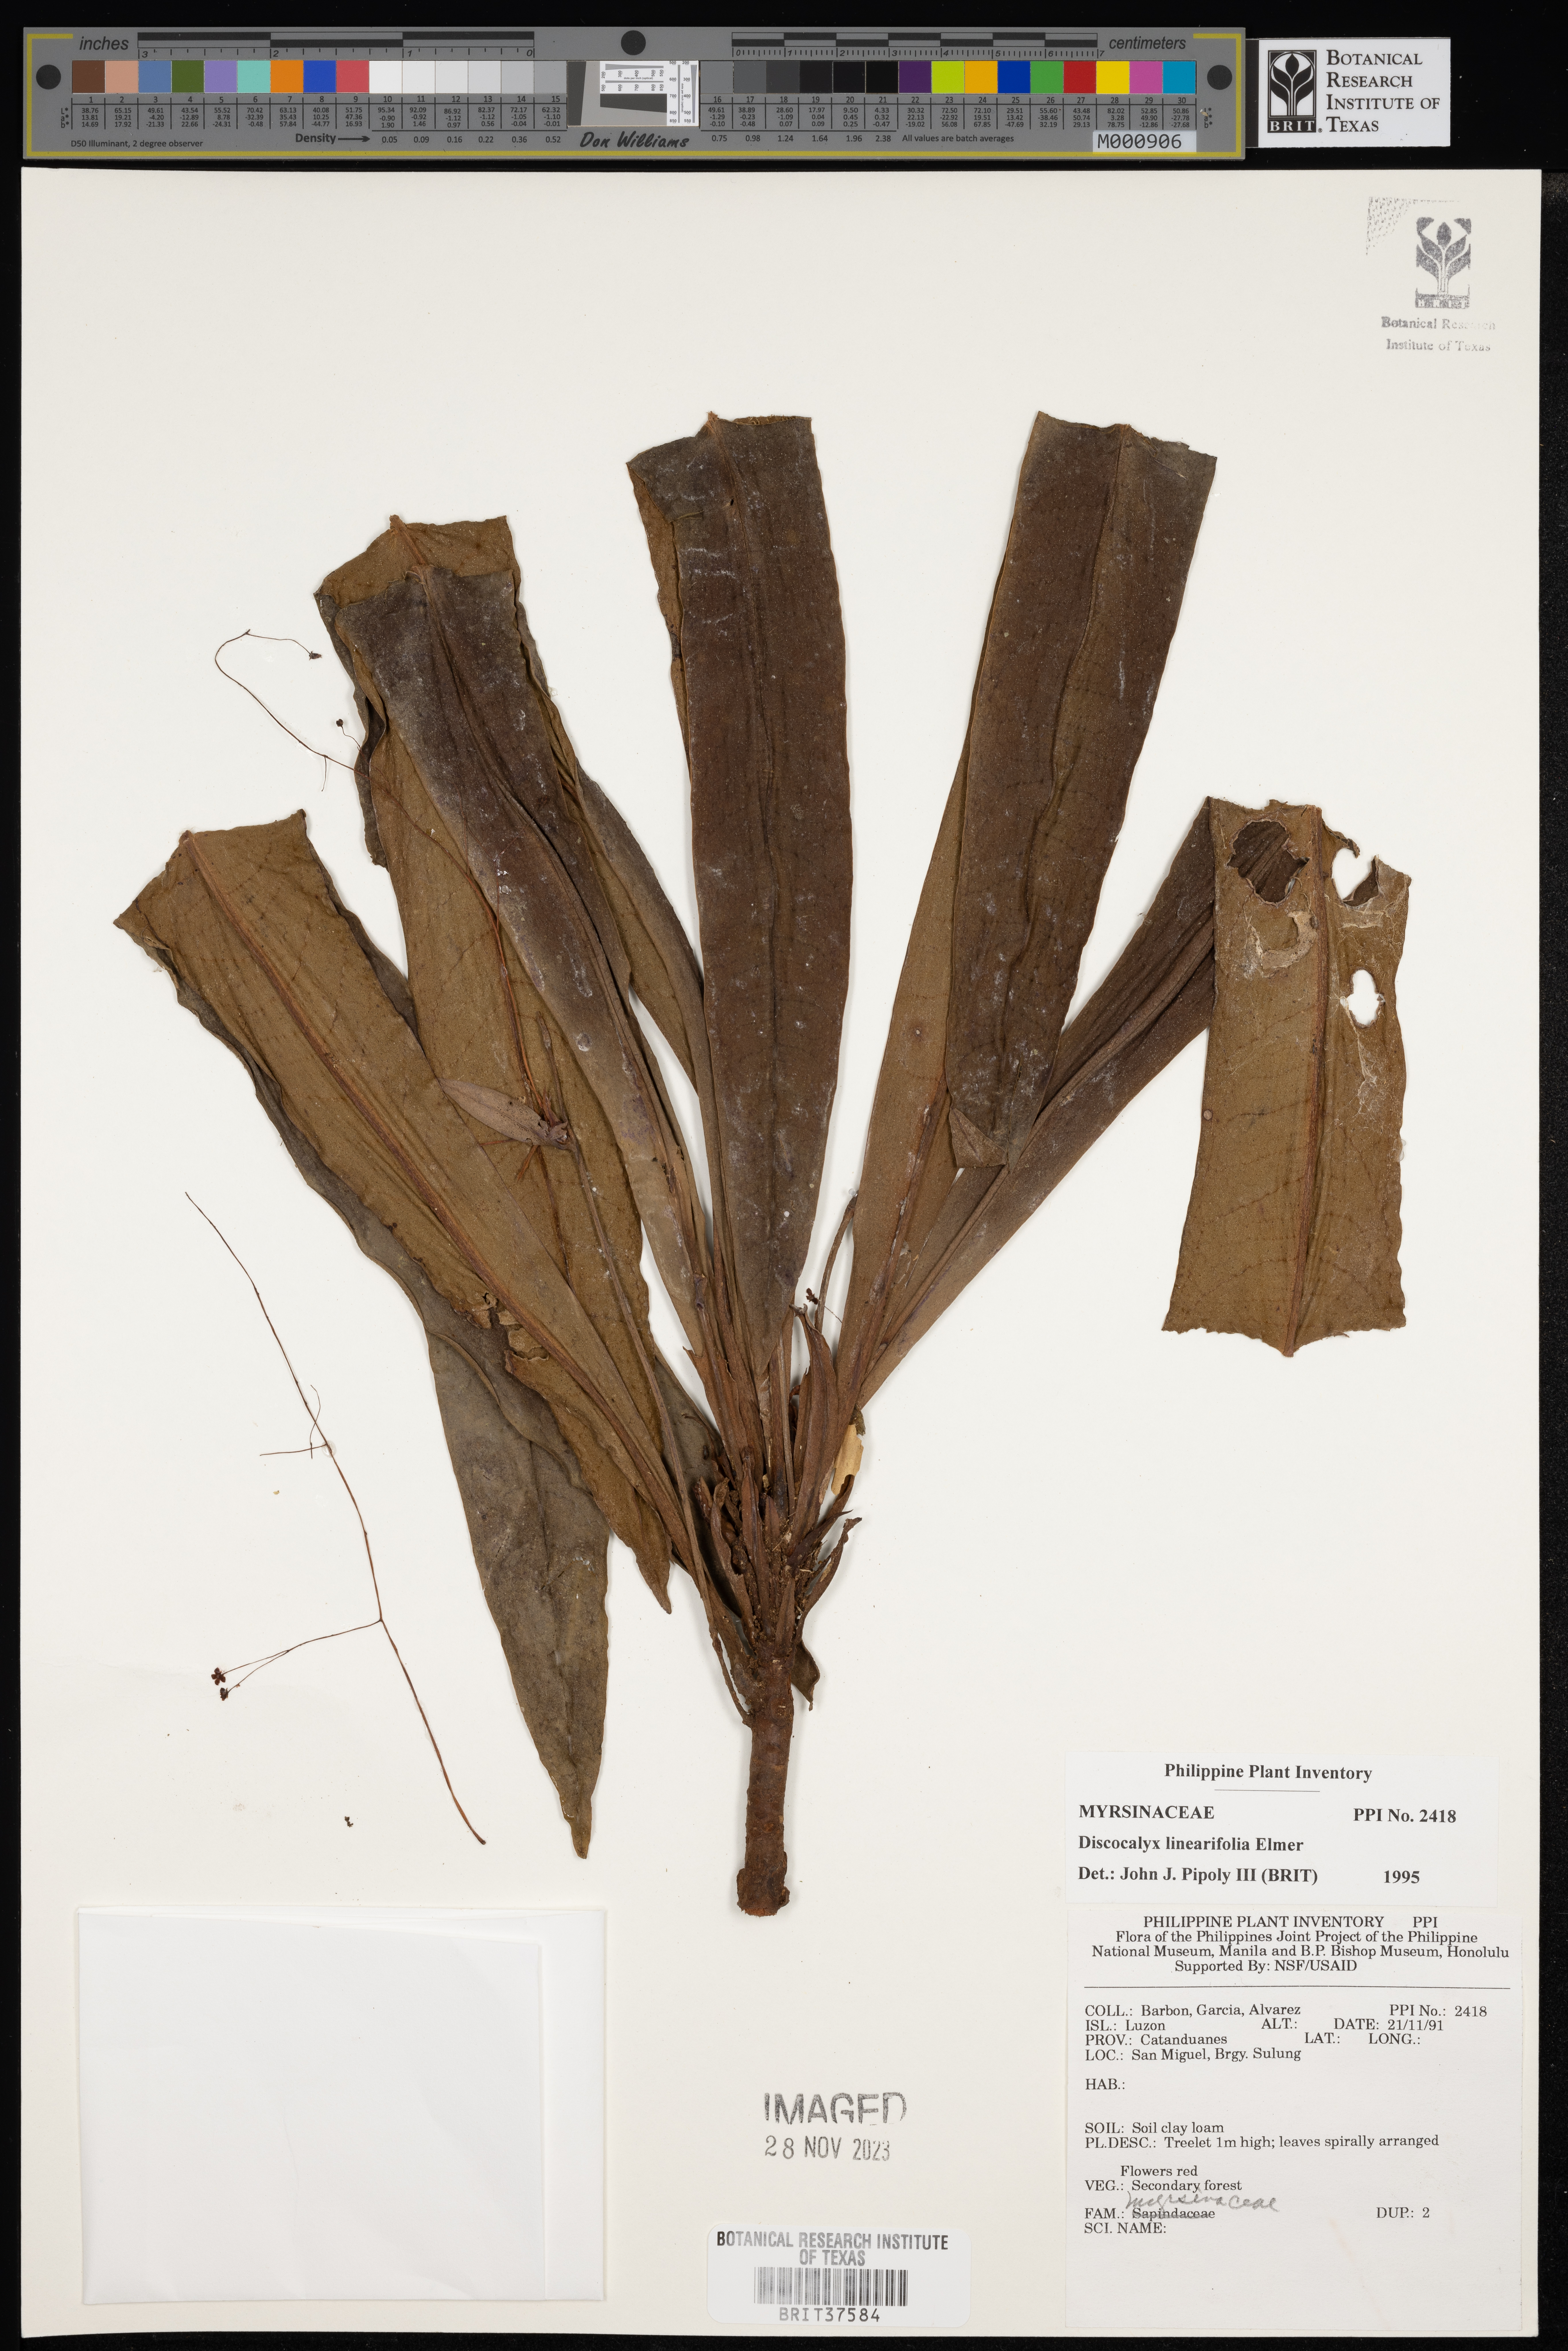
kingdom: Plantae
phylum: Tracheophyta
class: Magnoliopsida
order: Ericales
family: Primulaceae
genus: Discocalyx
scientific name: Discocalyx linearifolia
